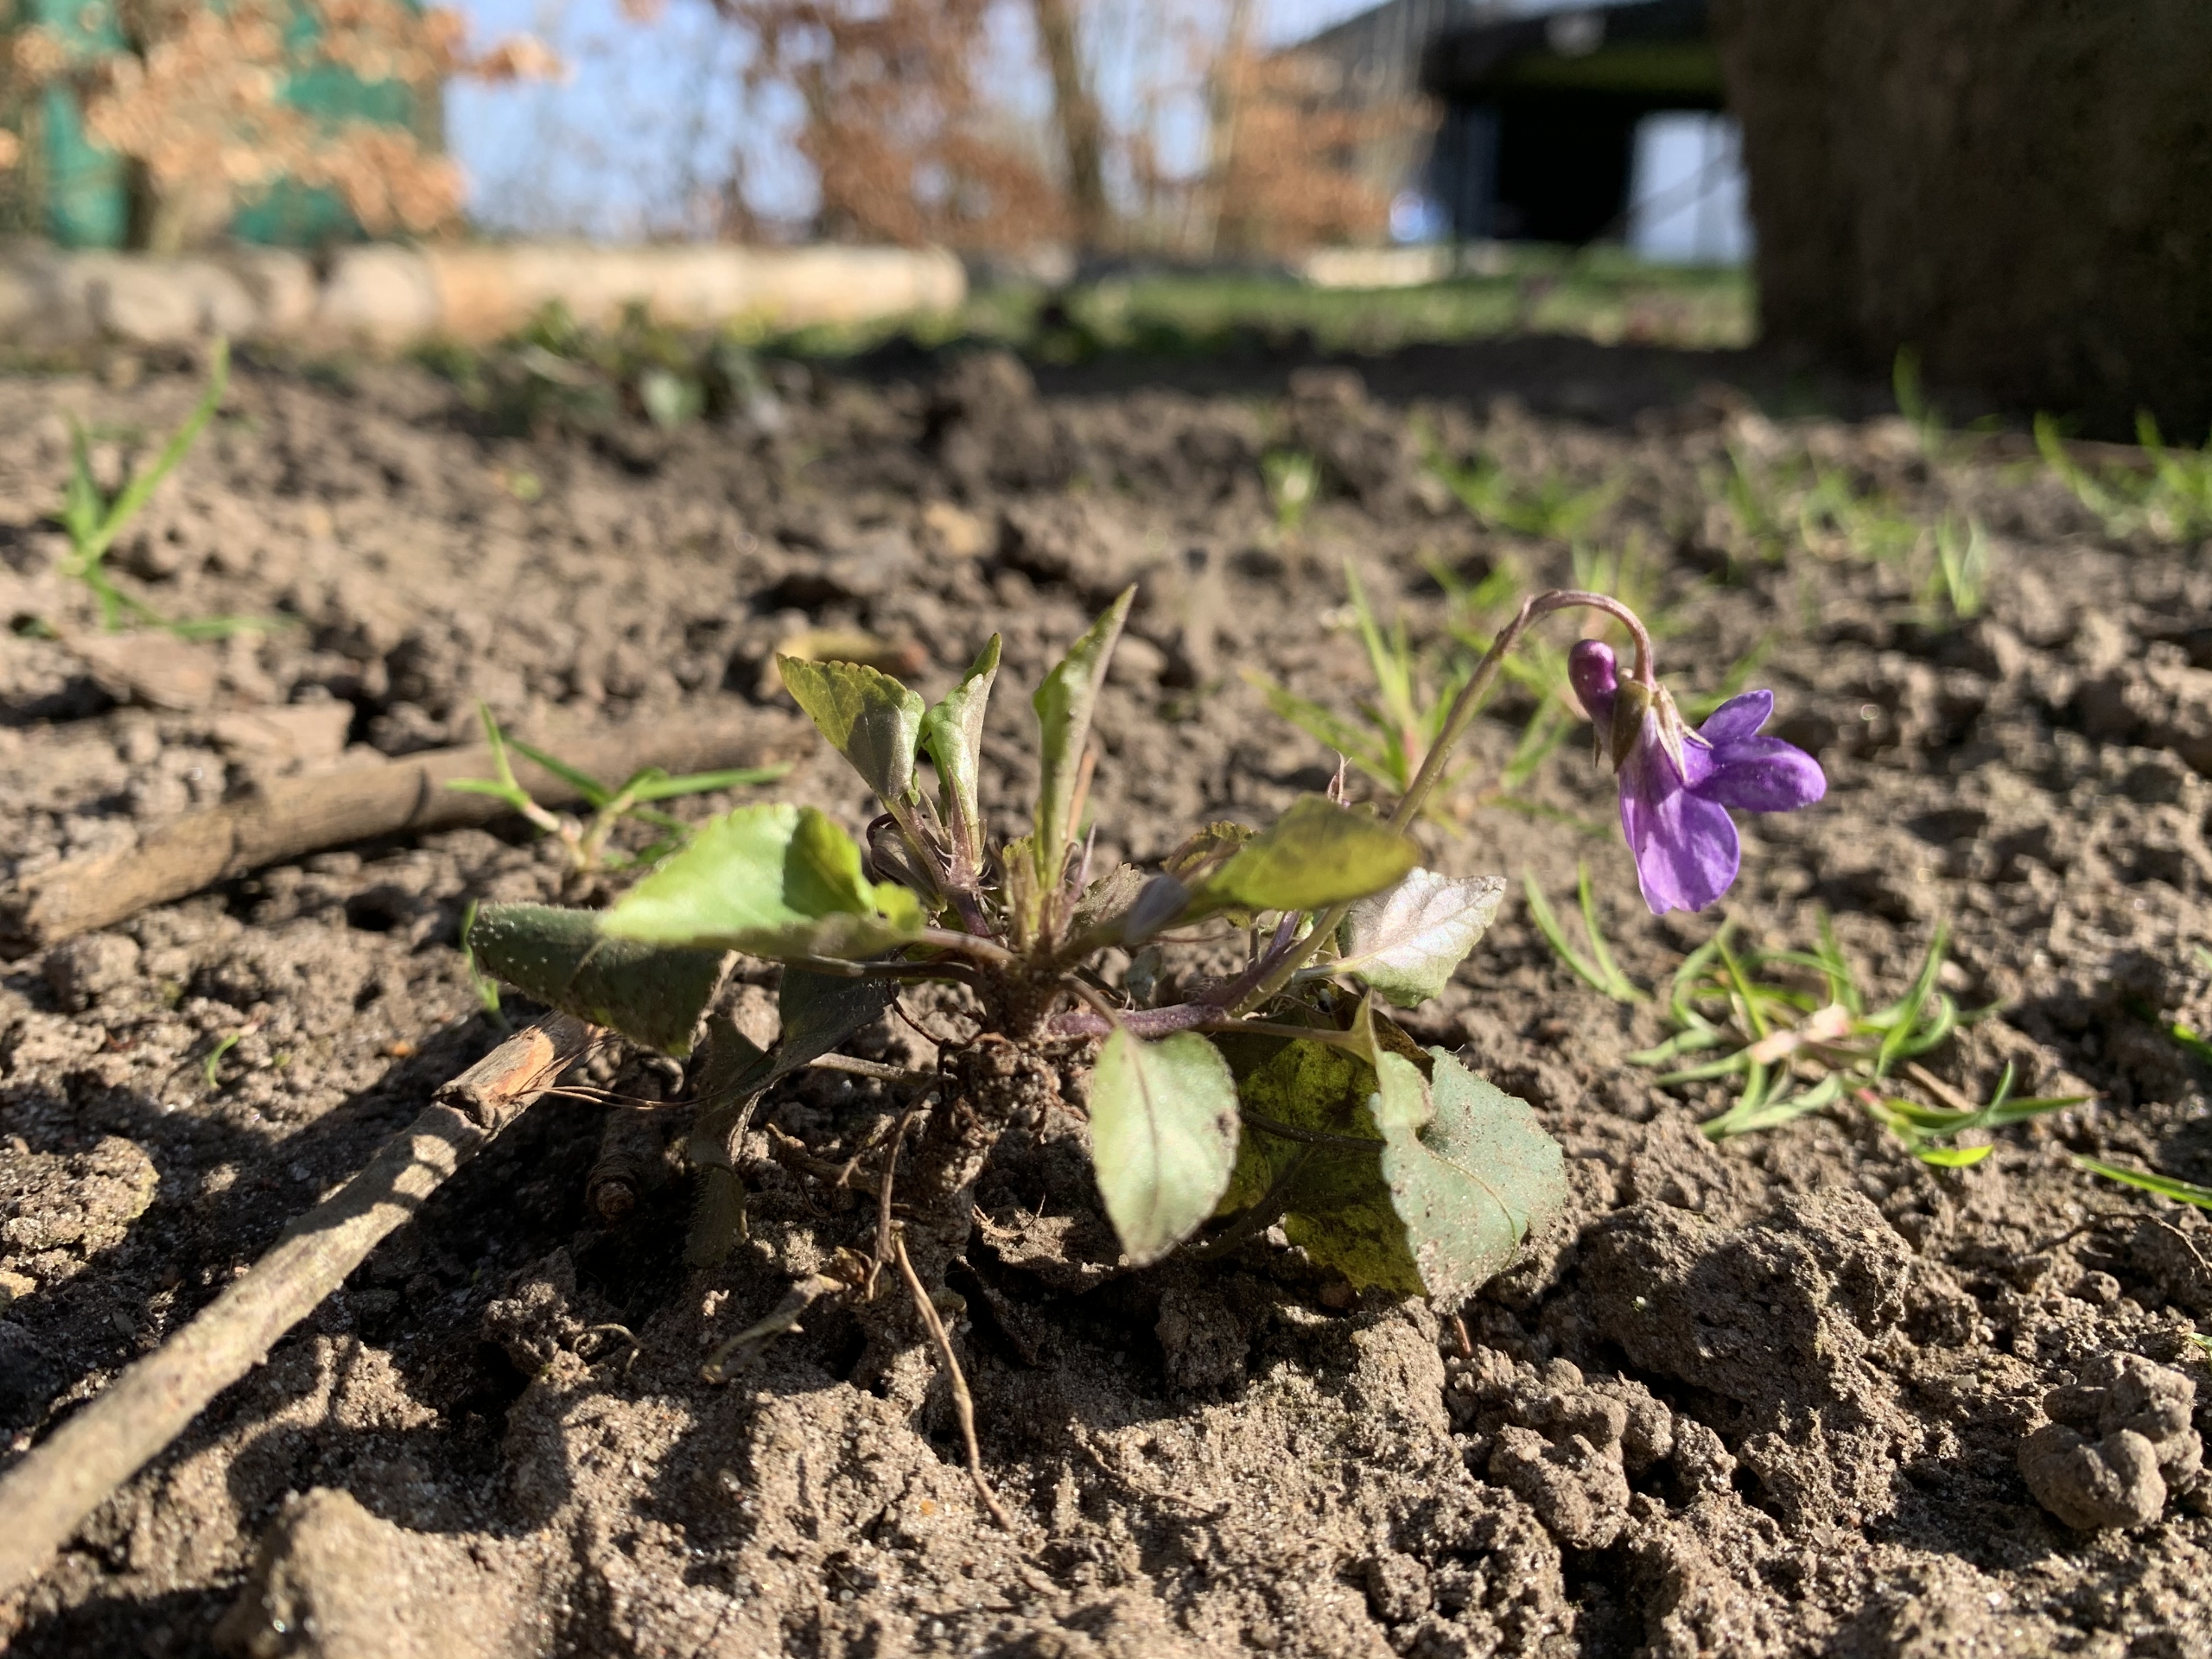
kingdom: Plantae
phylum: Tracheophyta
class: Magnoliopsida
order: Malpighiales
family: Violaceae
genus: Viola
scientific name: Viola reichenbachiana
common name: Skov-viol
